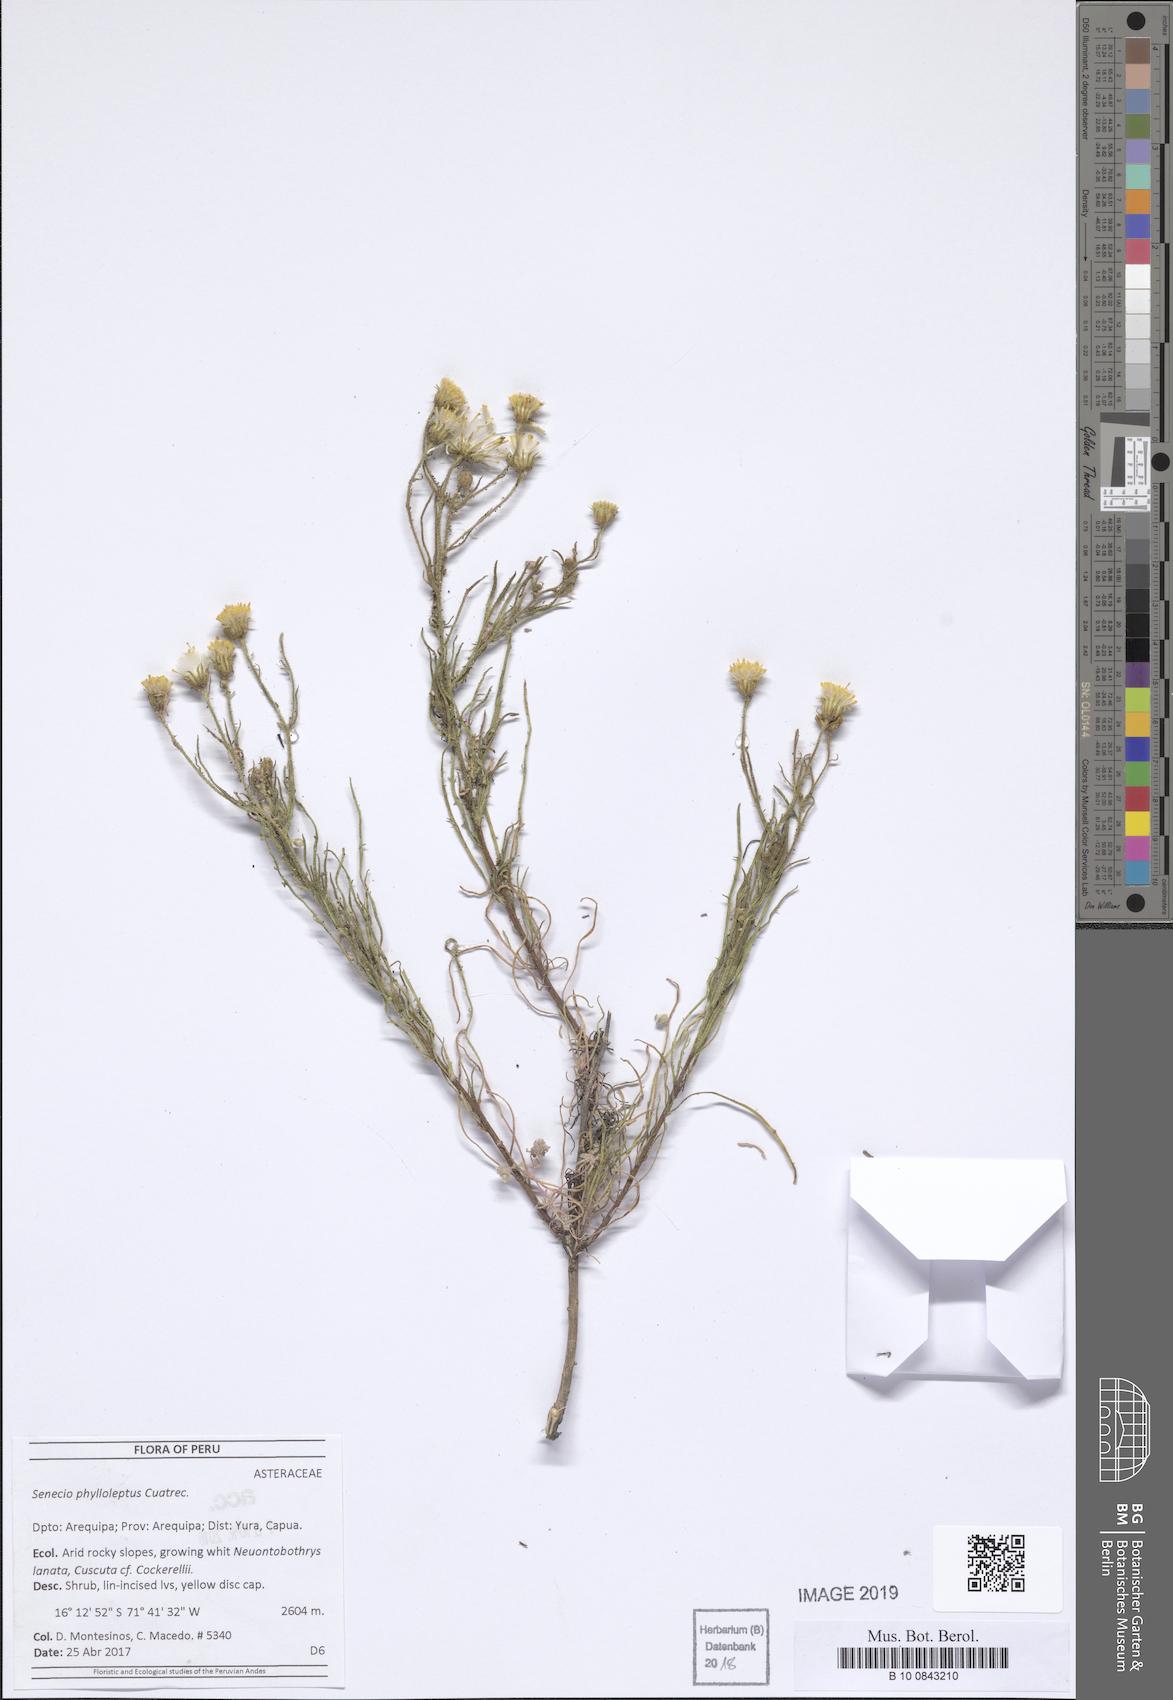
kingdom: Plantae
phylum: Tracheophyta
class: Magnoliopsida
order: Asterales
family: Asteraceae
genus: Senecio
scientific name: Senecio phylloleptus
